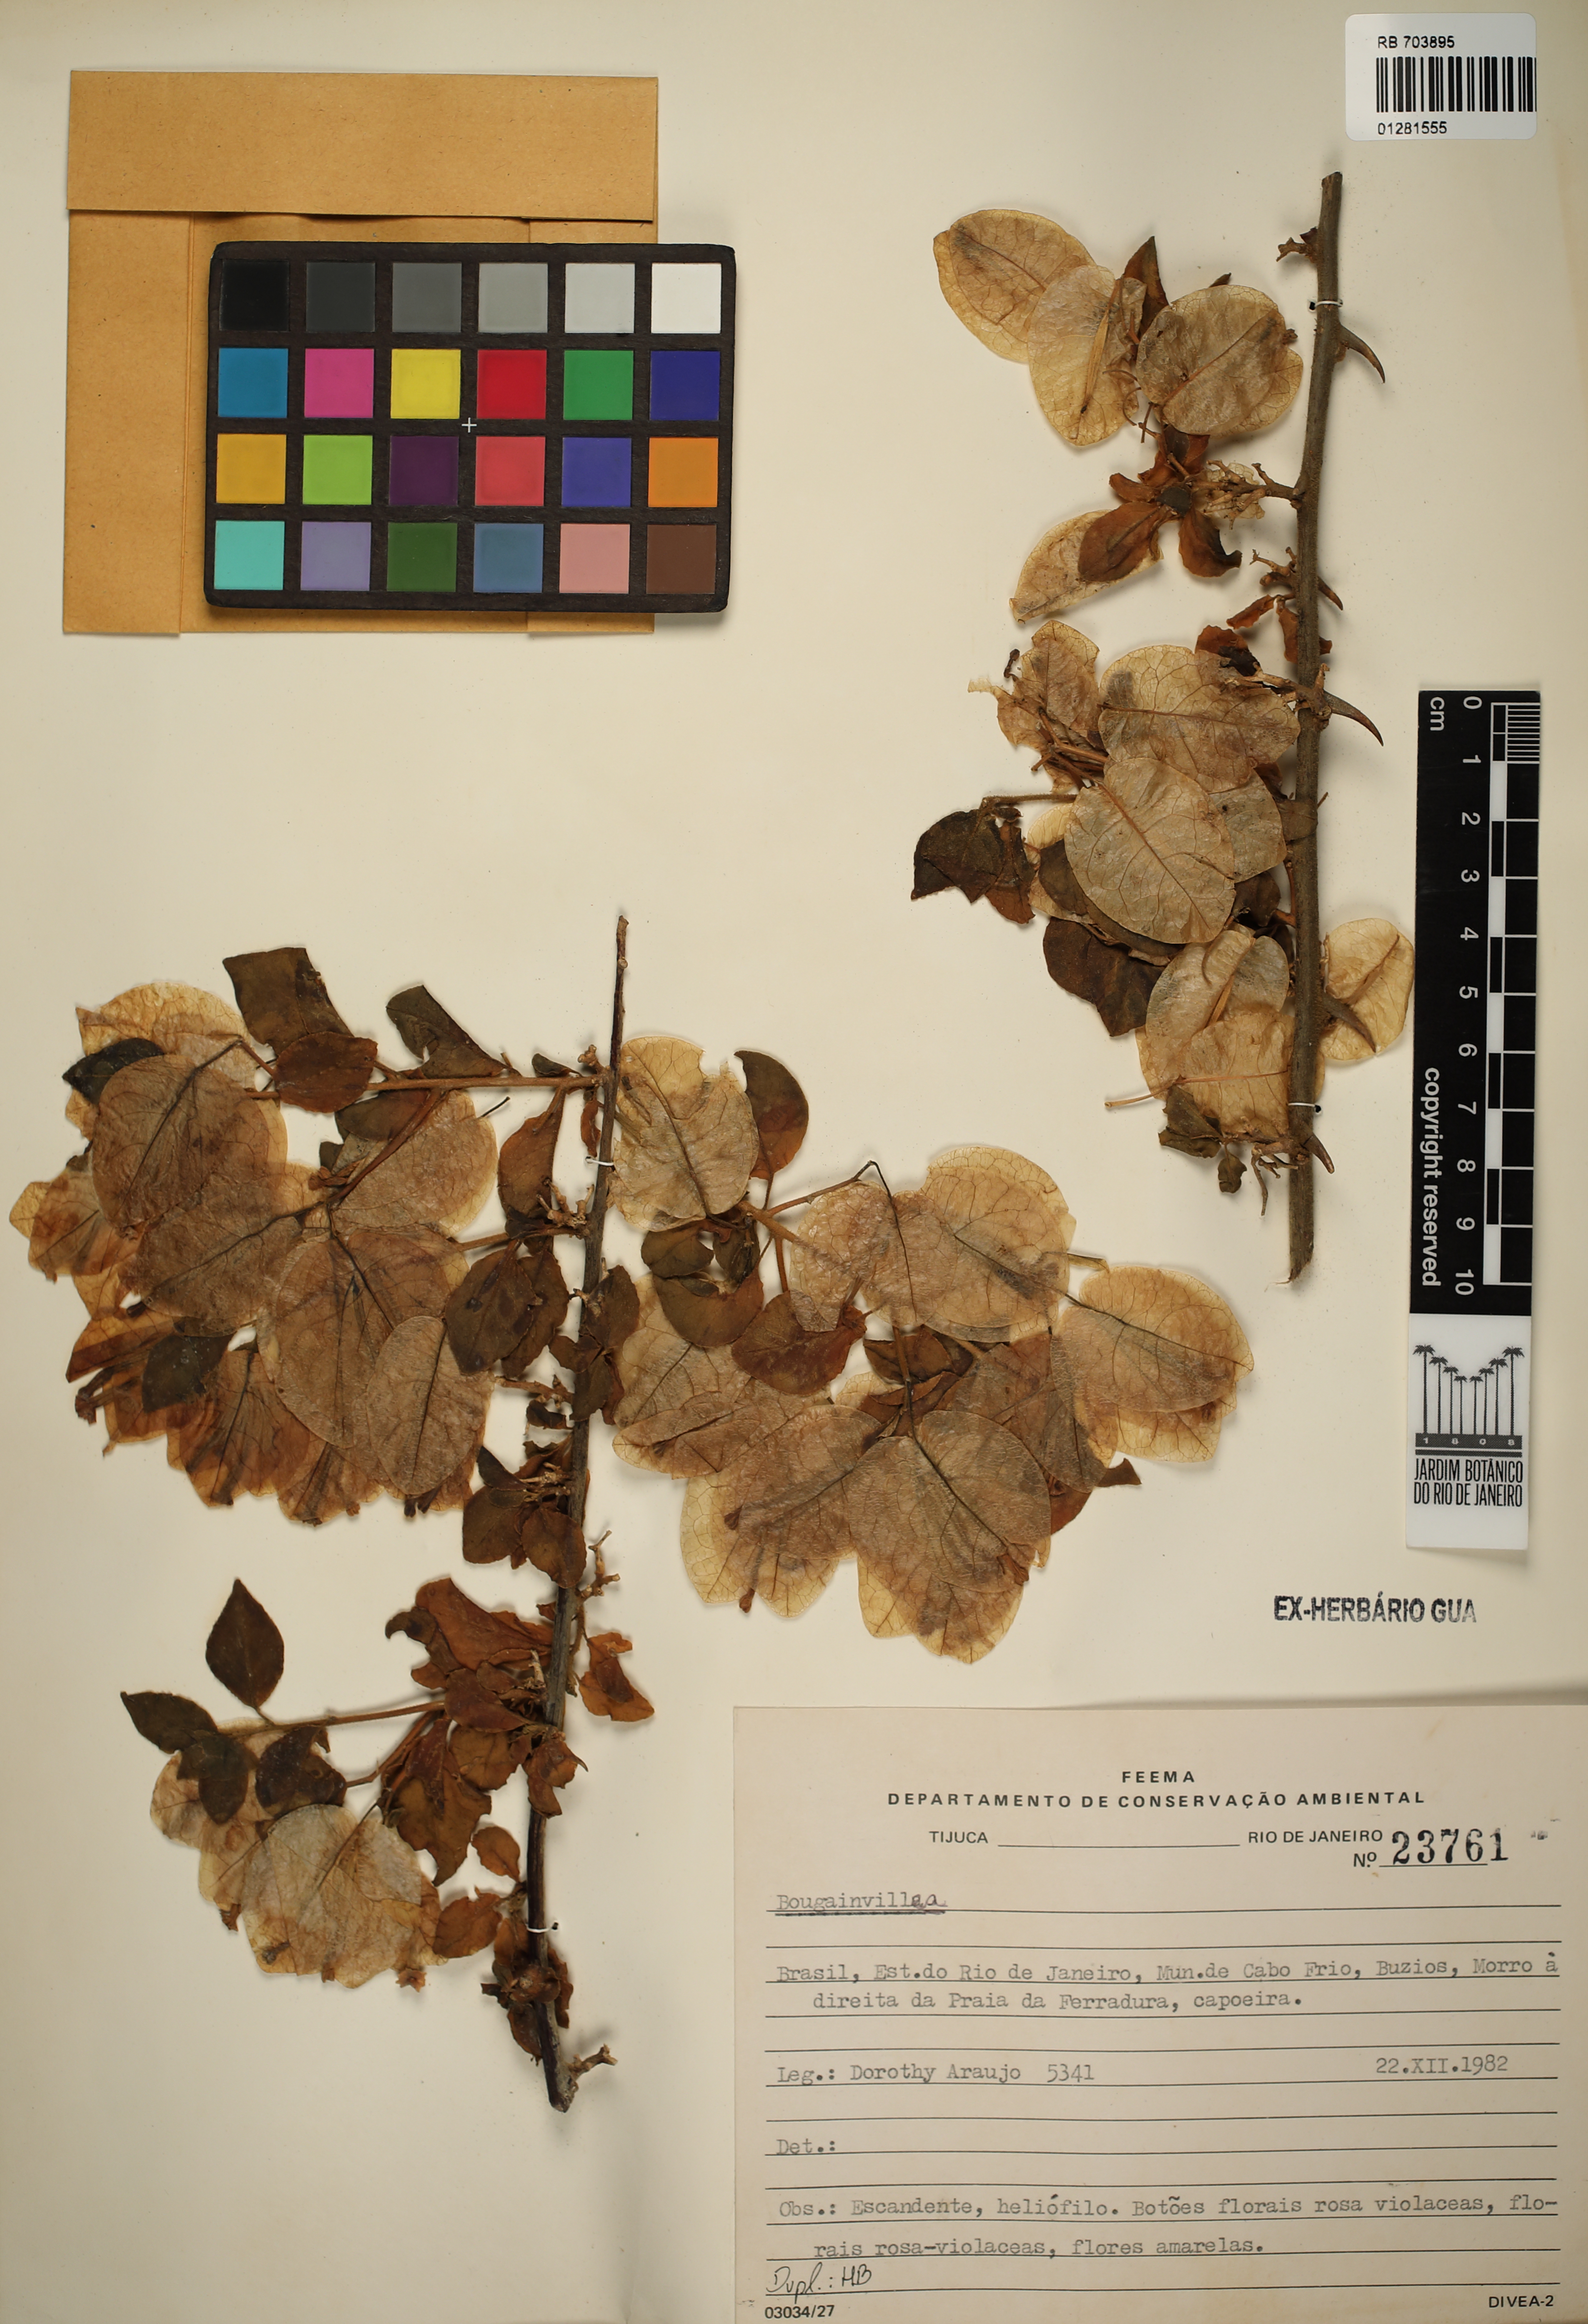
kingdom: Plantae
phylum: Tracheophyta
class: Magnoliopsida
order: Caryophyllales
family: Nyctaginaceae
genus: Bougainvillea
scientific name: Bougainvillea
